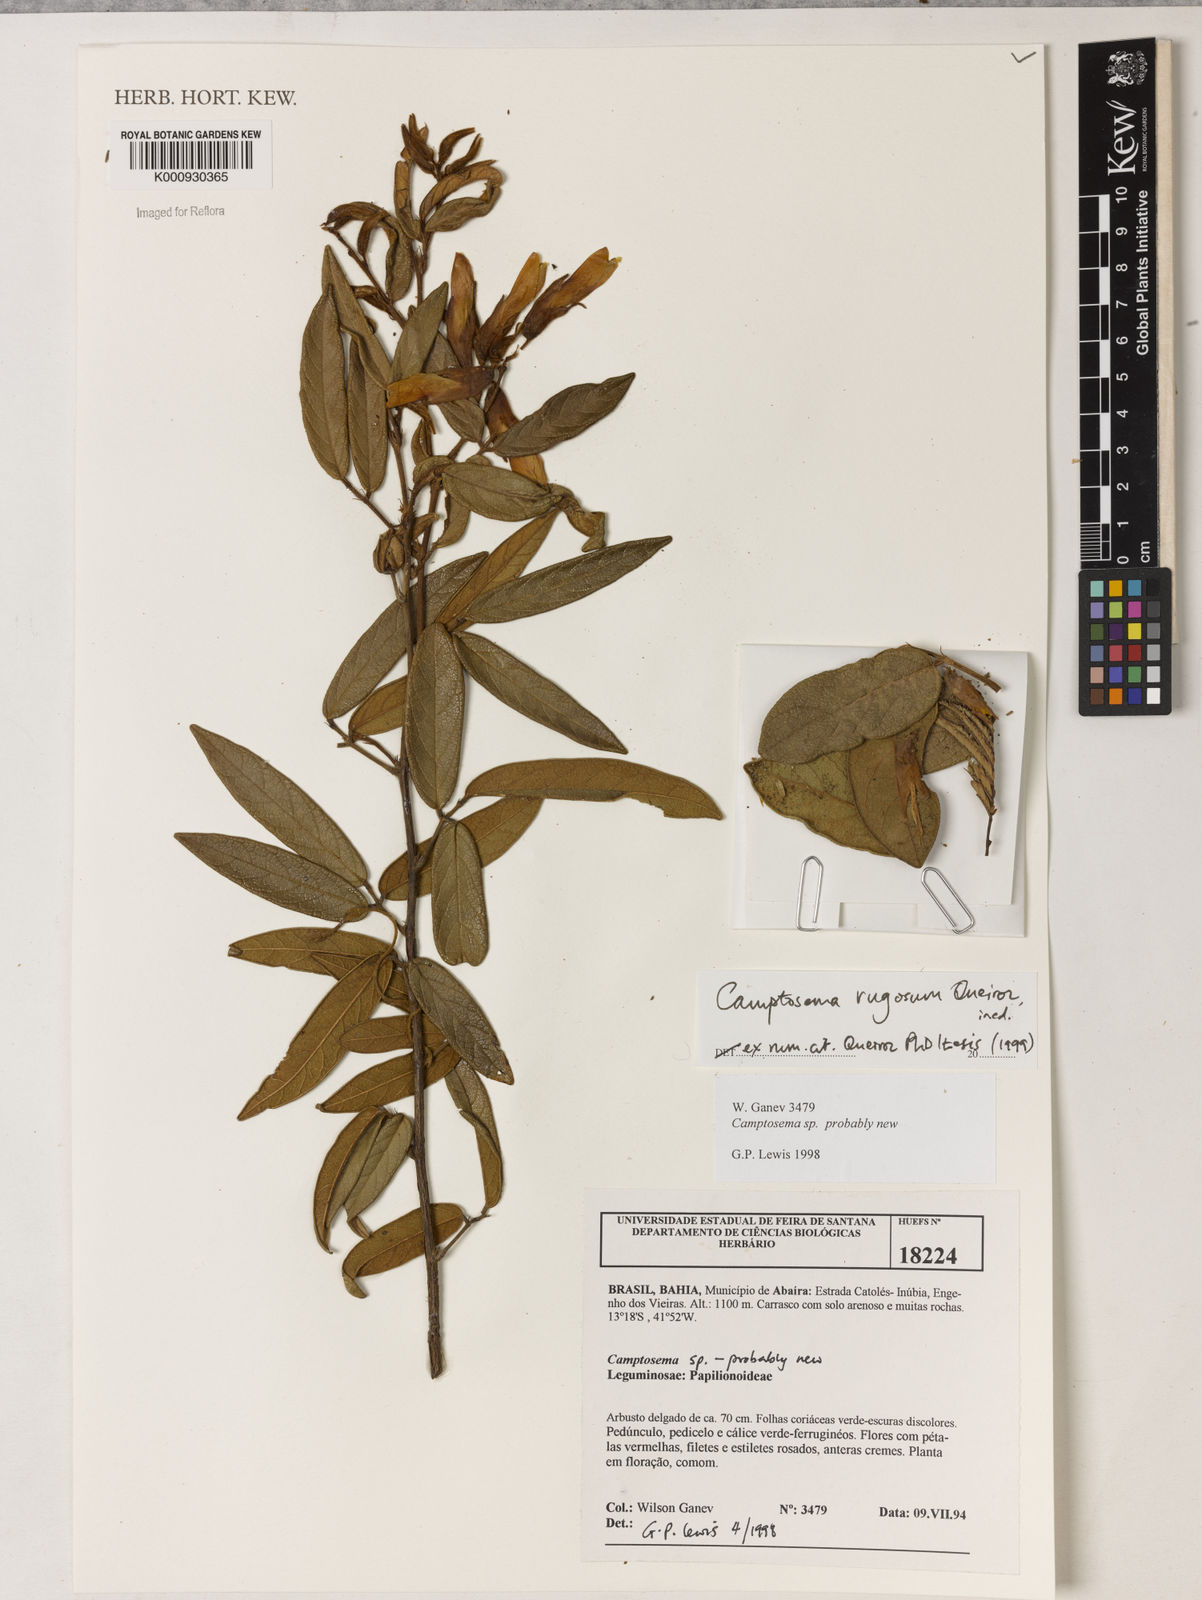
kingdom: Plantae
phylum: Tracheophyta
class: Magnoliopsida
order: Fabales
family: Fabaceae
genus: Camptosema
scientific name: Camptosema
